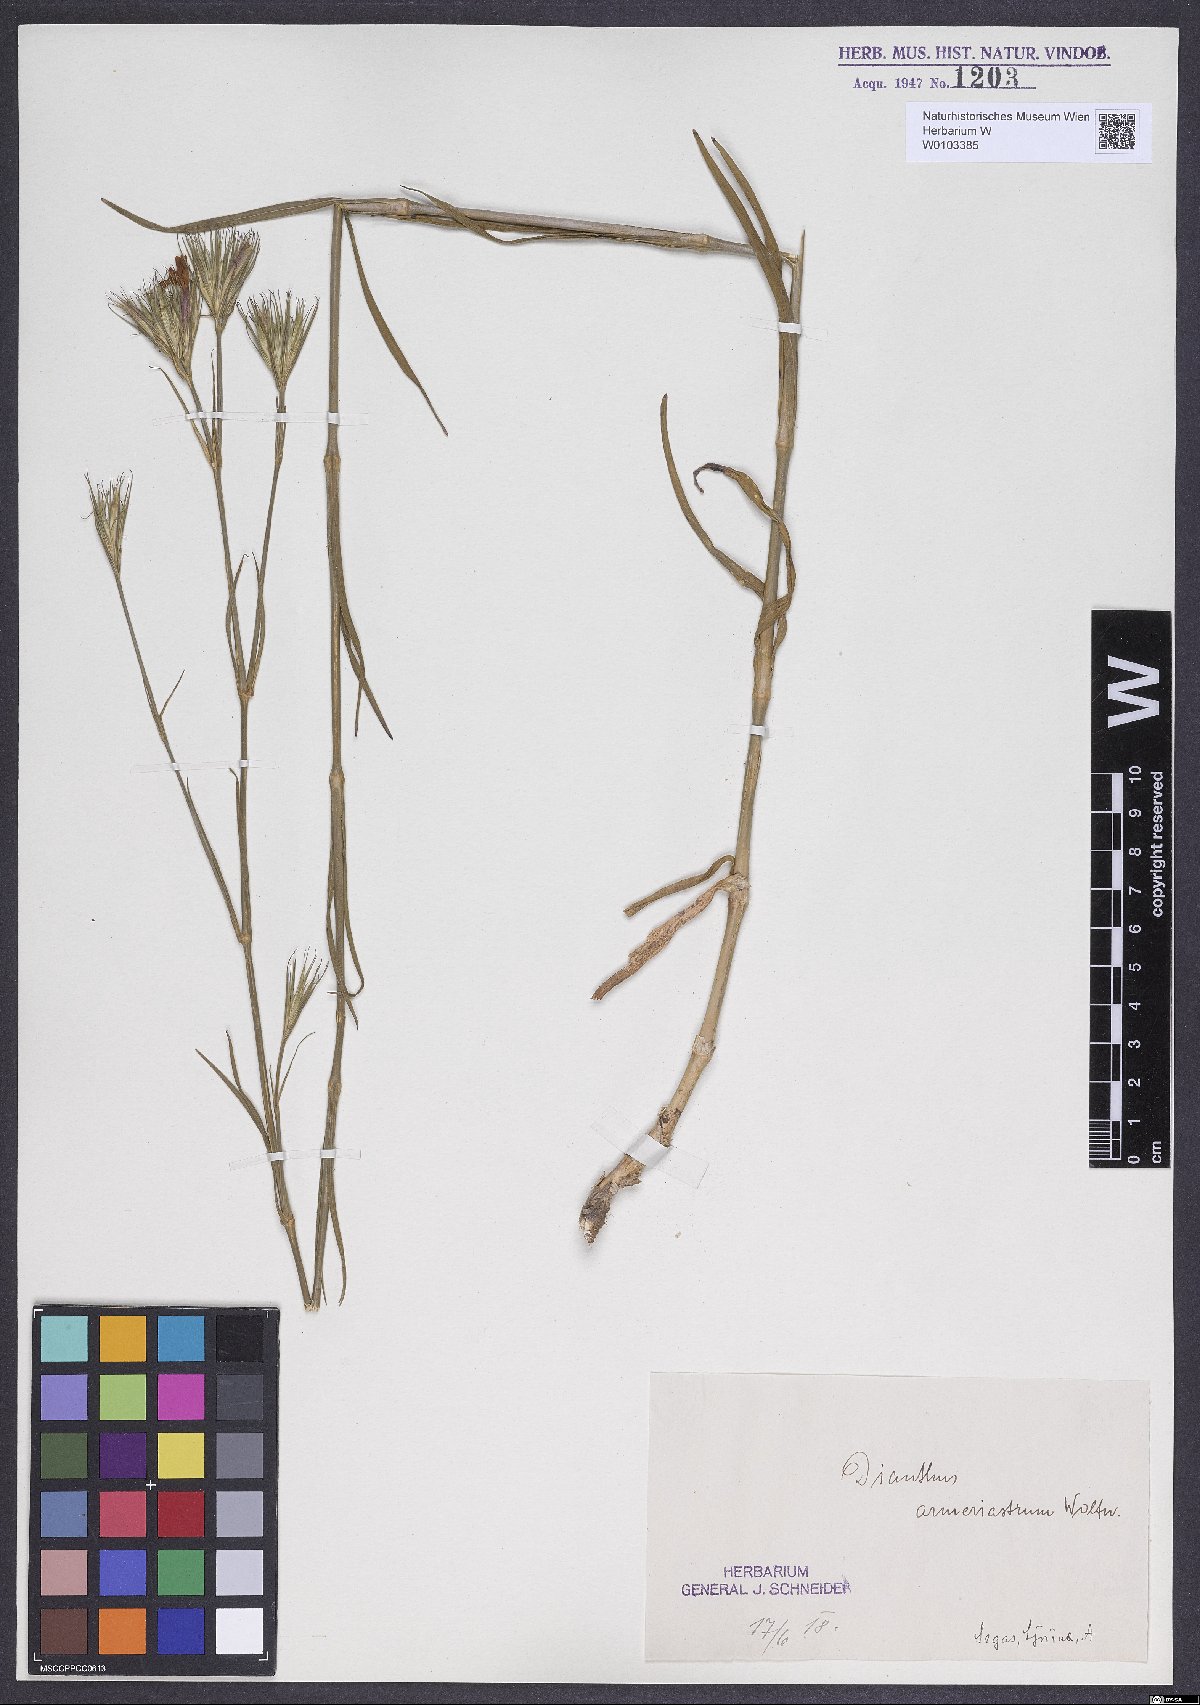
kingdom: Plantae
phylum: Tracheophyta
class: Magnoliopsida
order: Caryophyllales
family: Caryophyllaceae
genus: Dianthus
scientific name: Dianthus corymbosus
